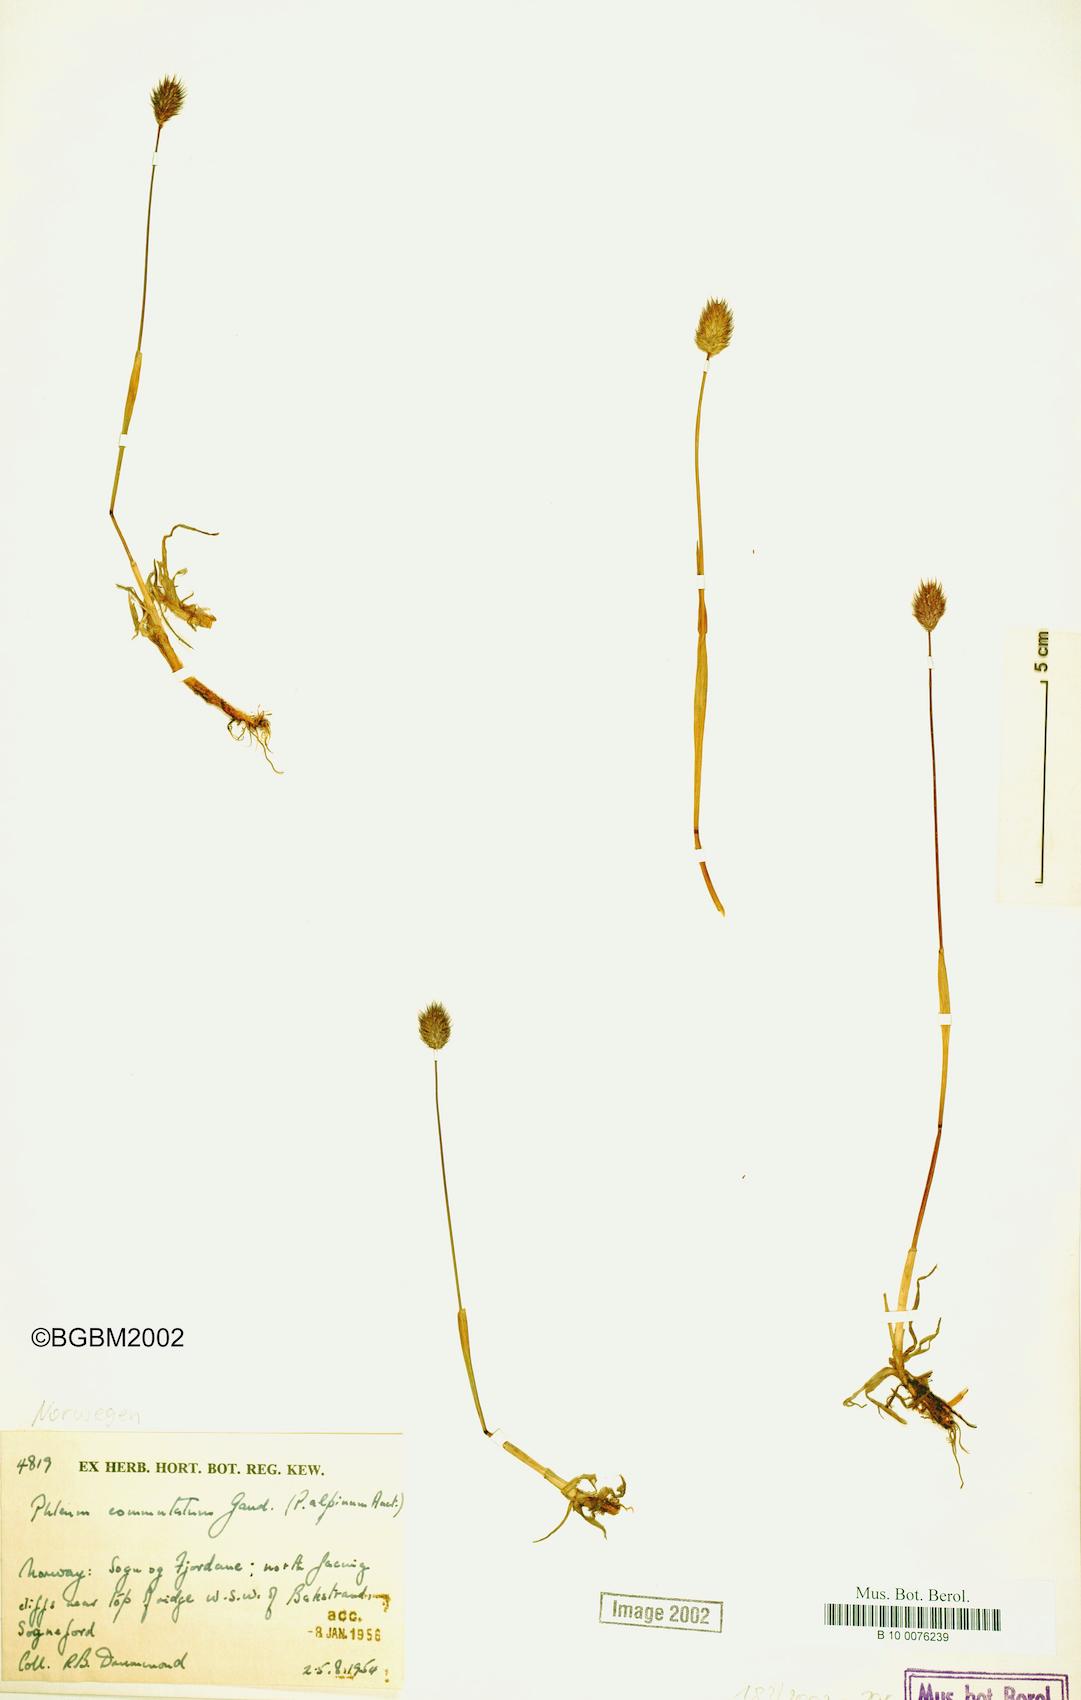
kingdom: Plantae
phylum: Tracheophyta
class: Liliopsida
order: Poales
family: Poaceae
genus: Phleum
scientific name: Phleum alpinum
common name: Alpine cat's-tail
